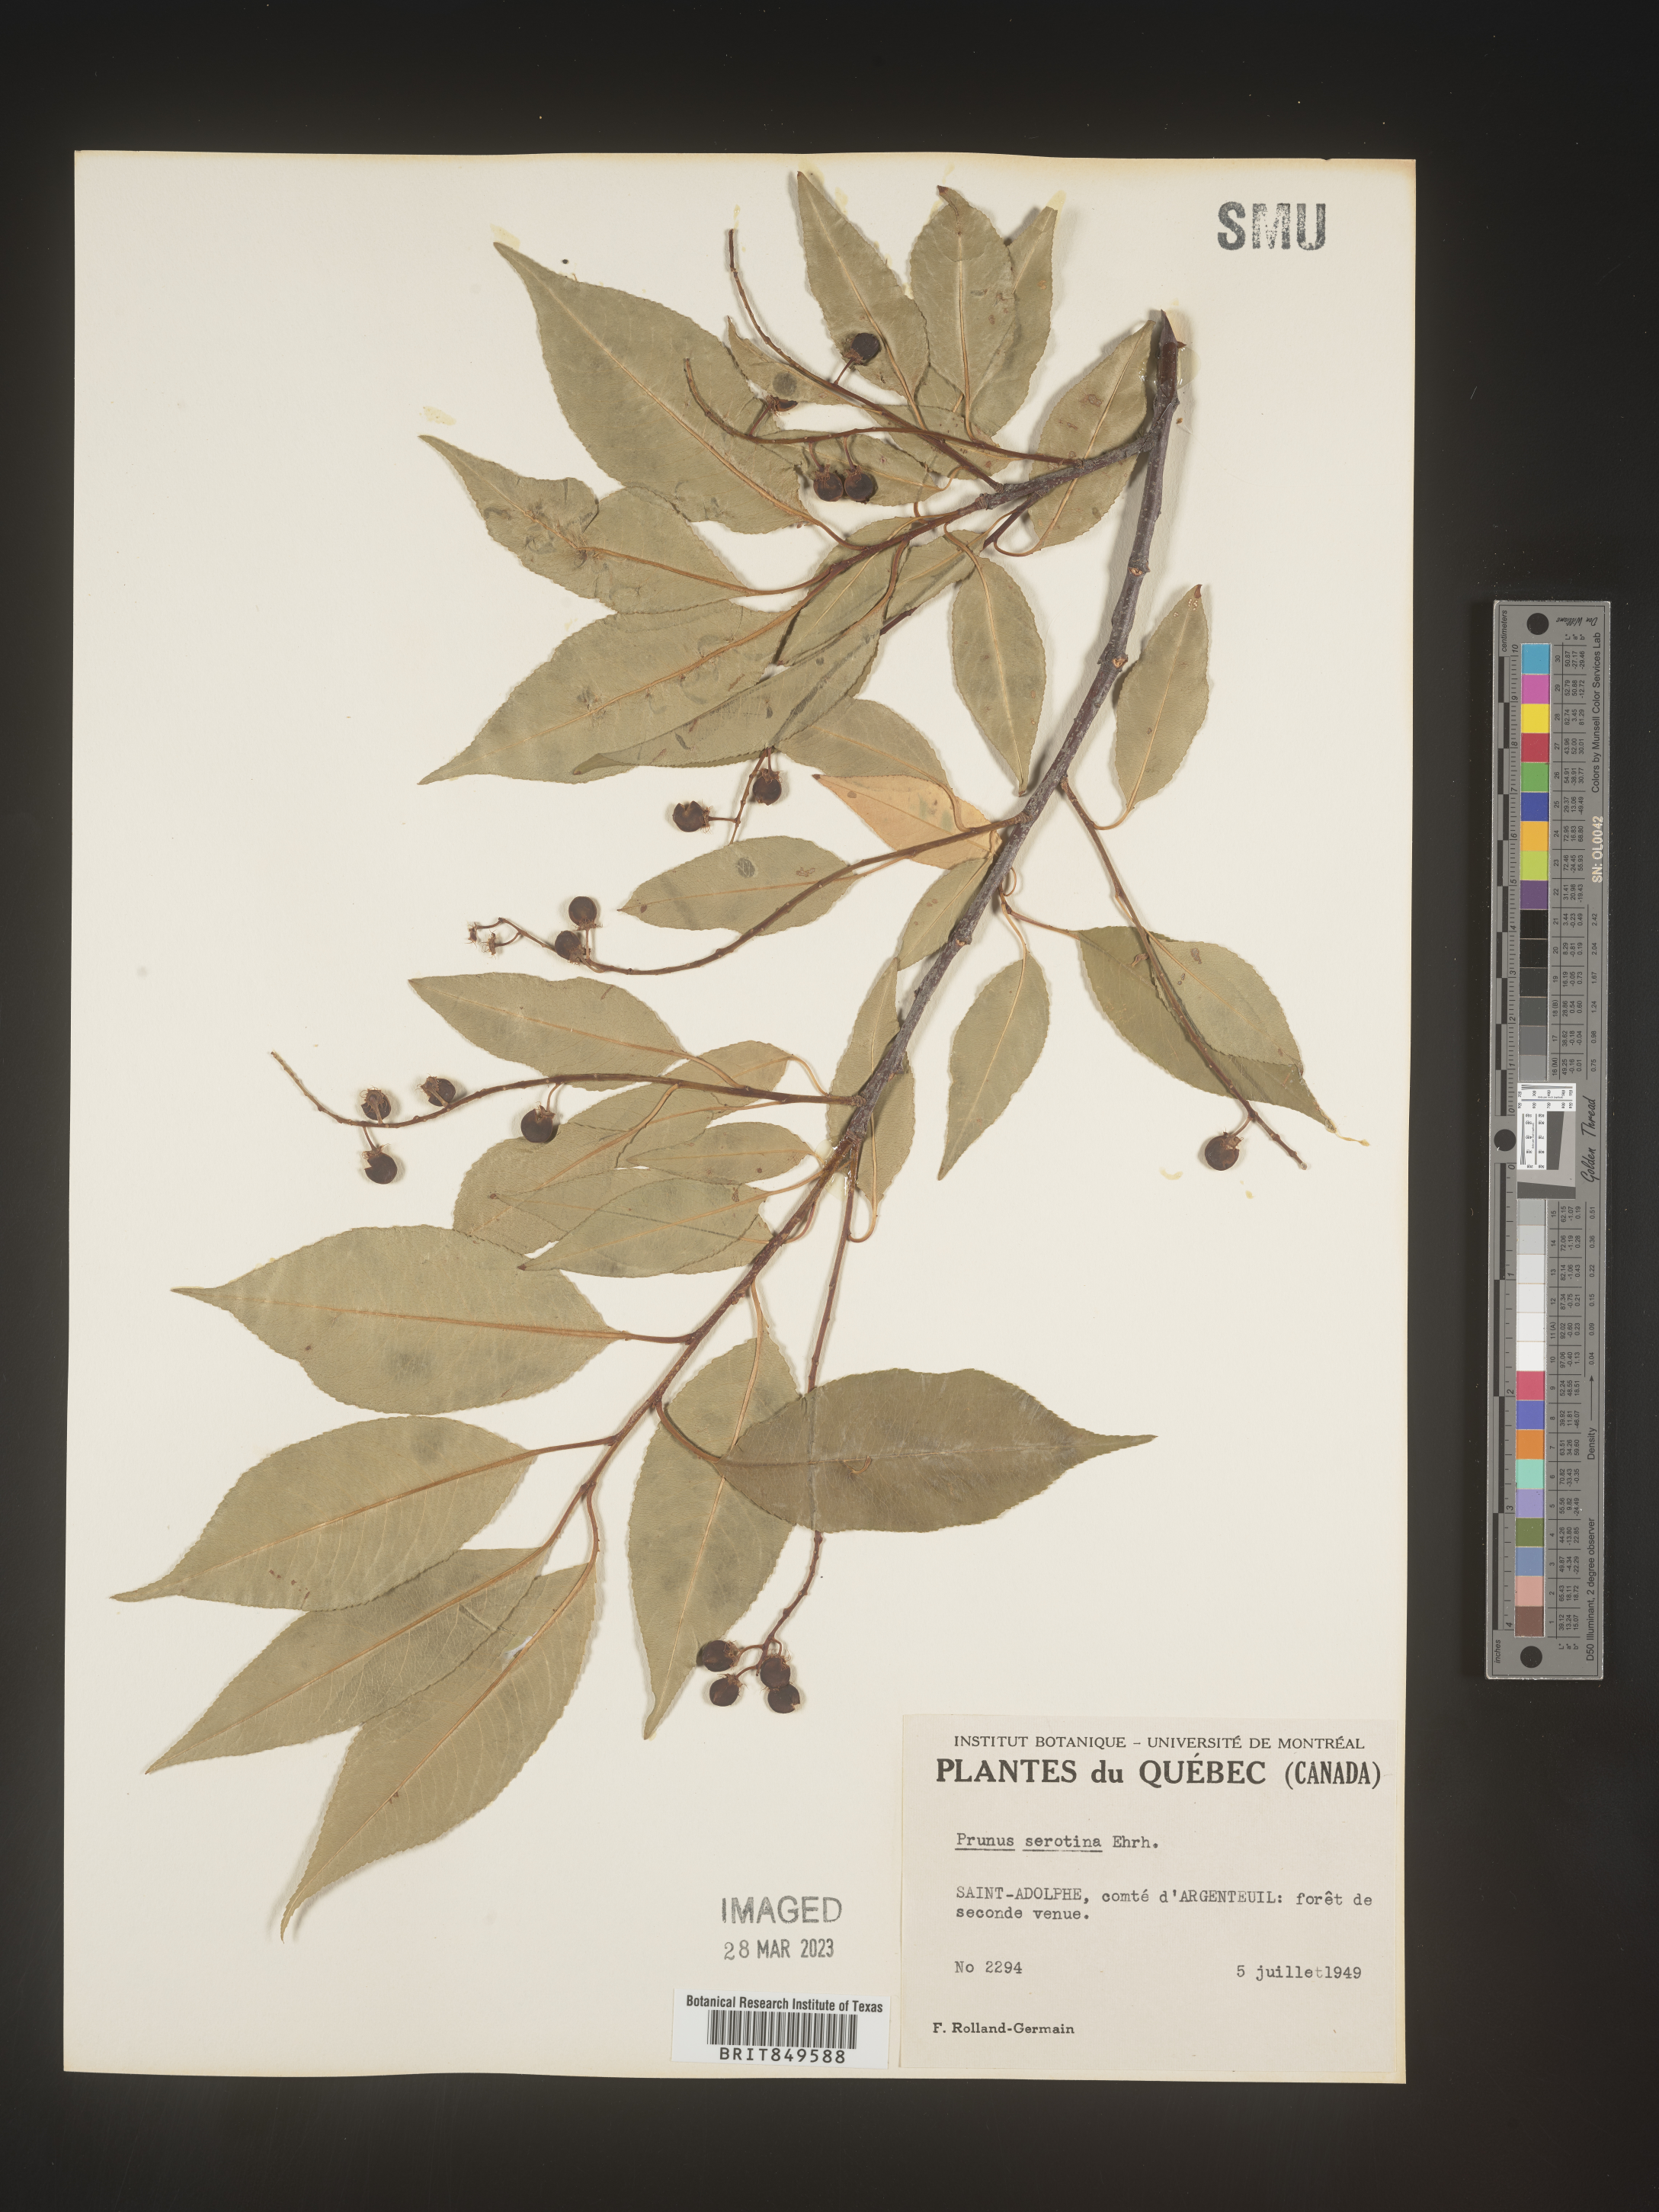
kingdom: Plantae
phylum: Tracheophyta
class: Magnoliopsida
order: Rosales
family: Rosaceae
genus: Prunus
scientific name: Prunus serotina
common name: Black cherry
